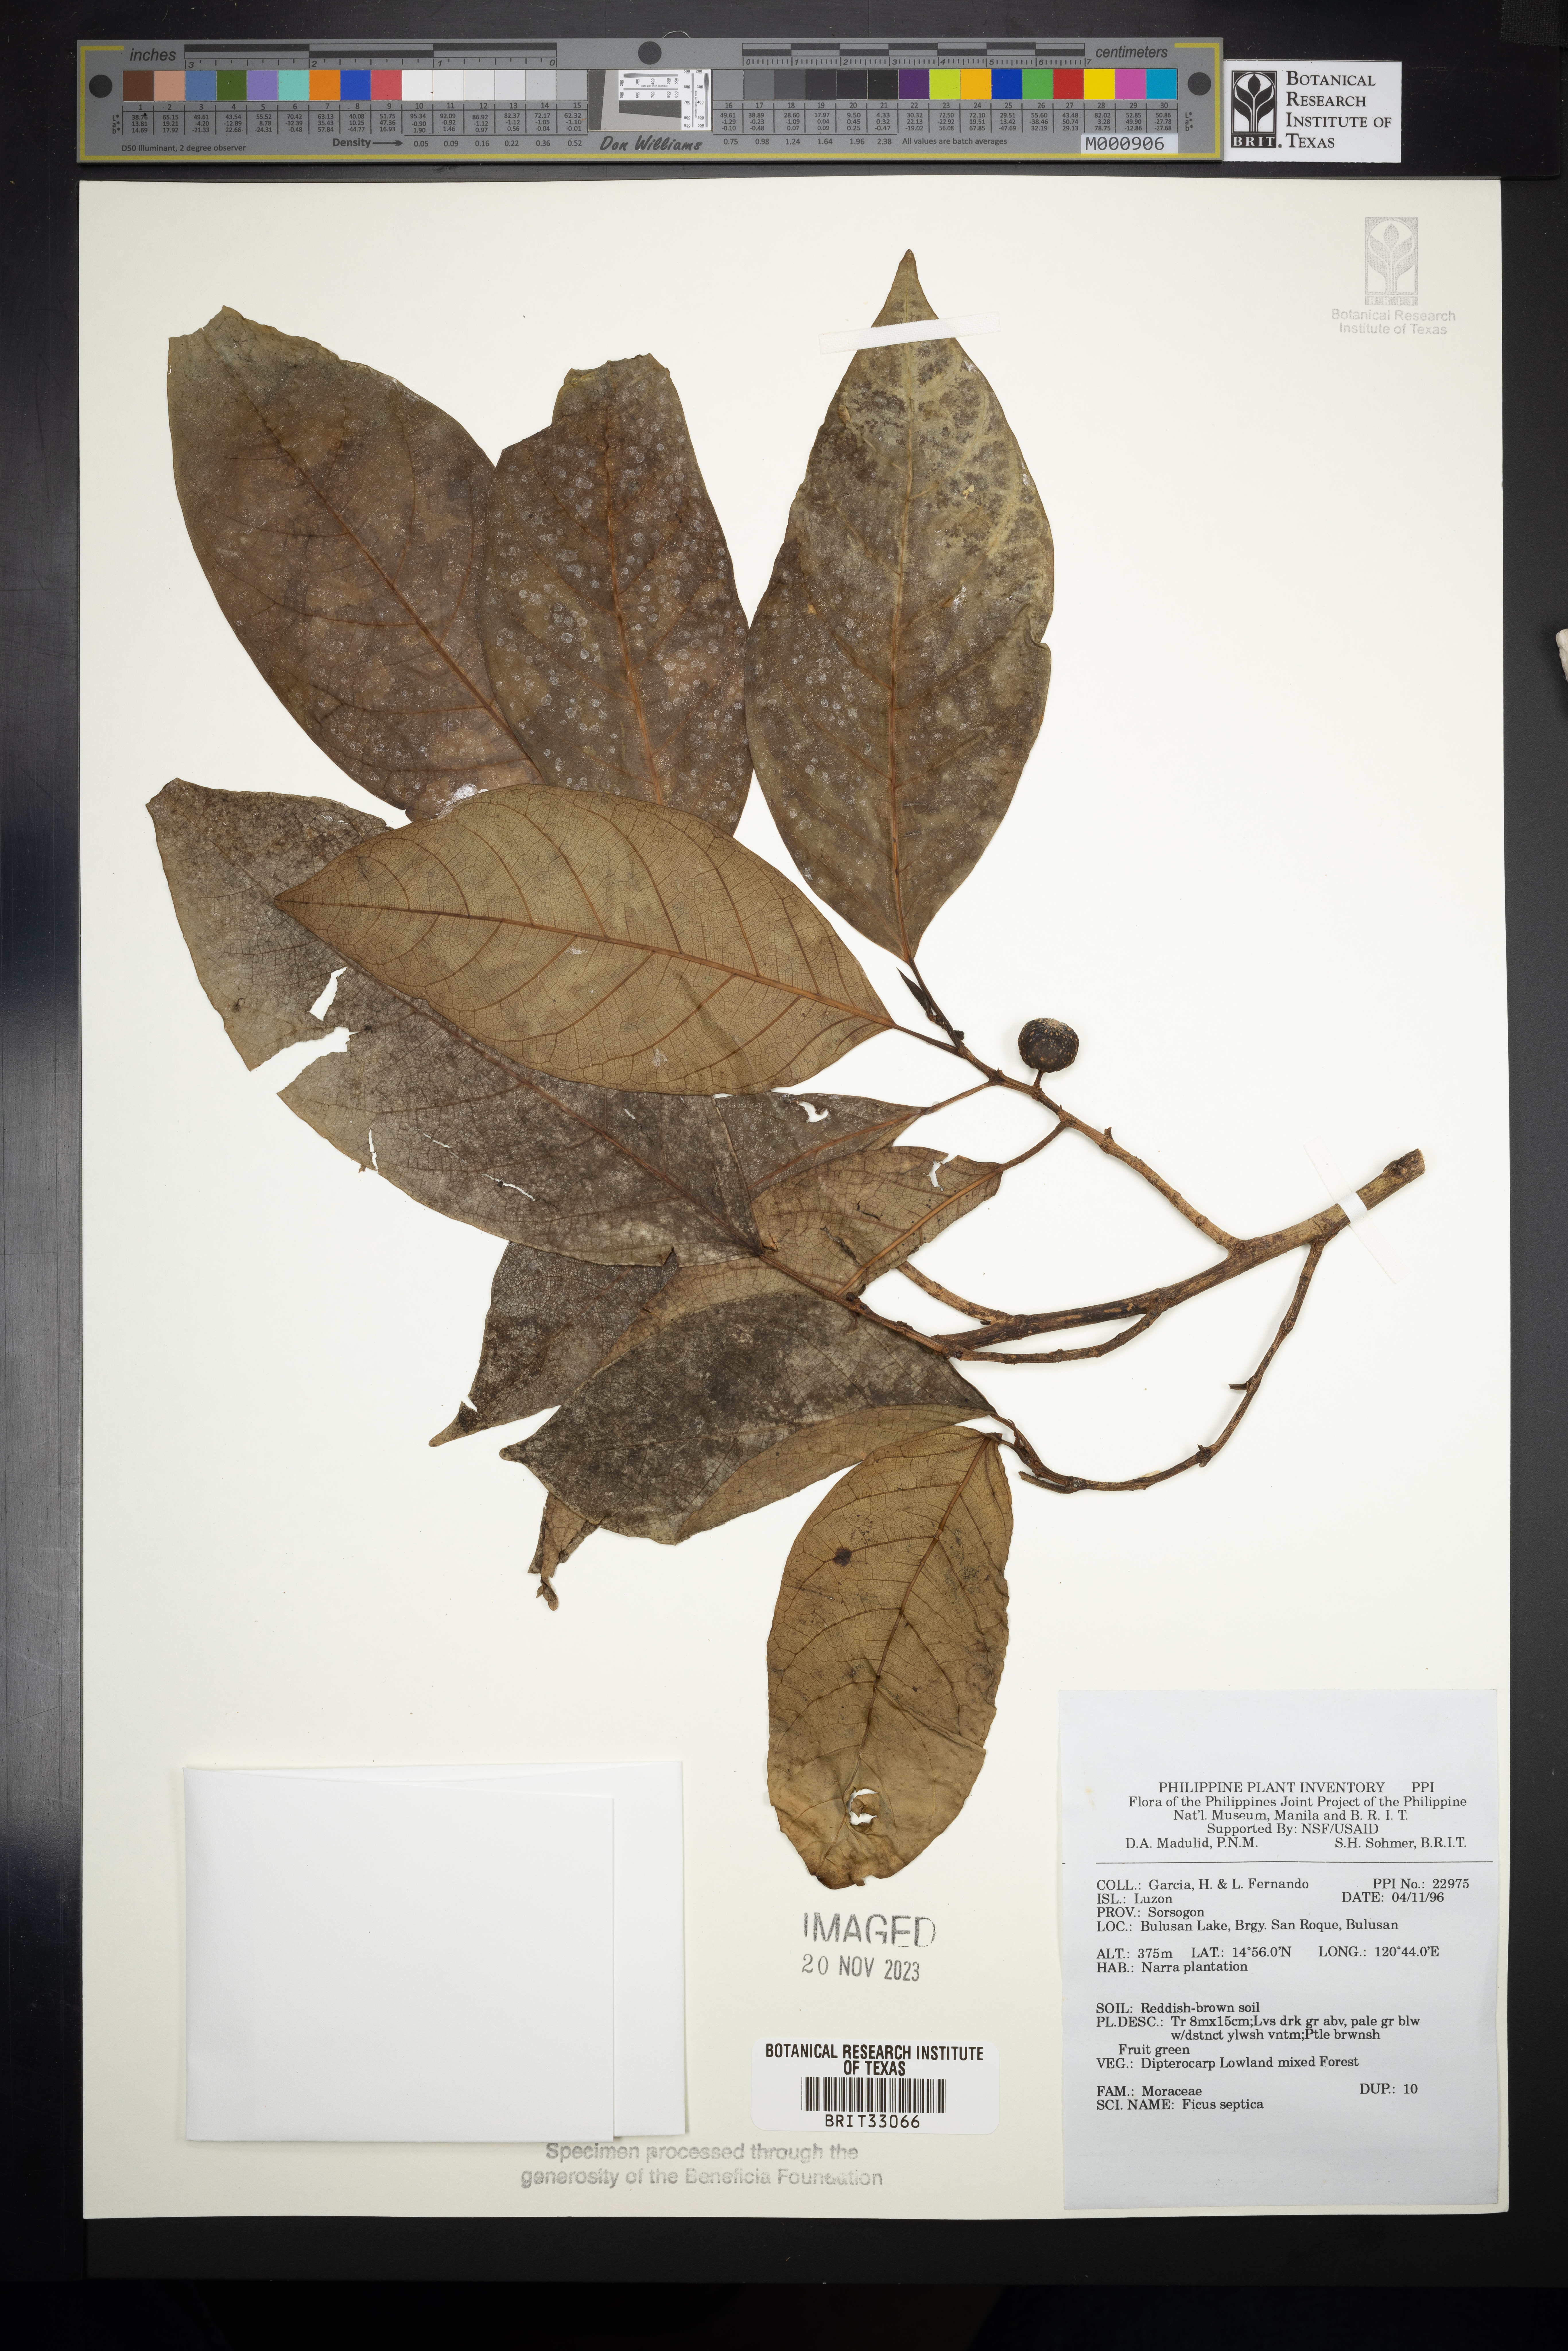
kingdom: Plantae
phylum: Tracheophyta
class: Magnoliopsida
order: Rosales
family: Moraceae
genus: Ficus
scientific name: Ficus septica
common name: Septic fig
